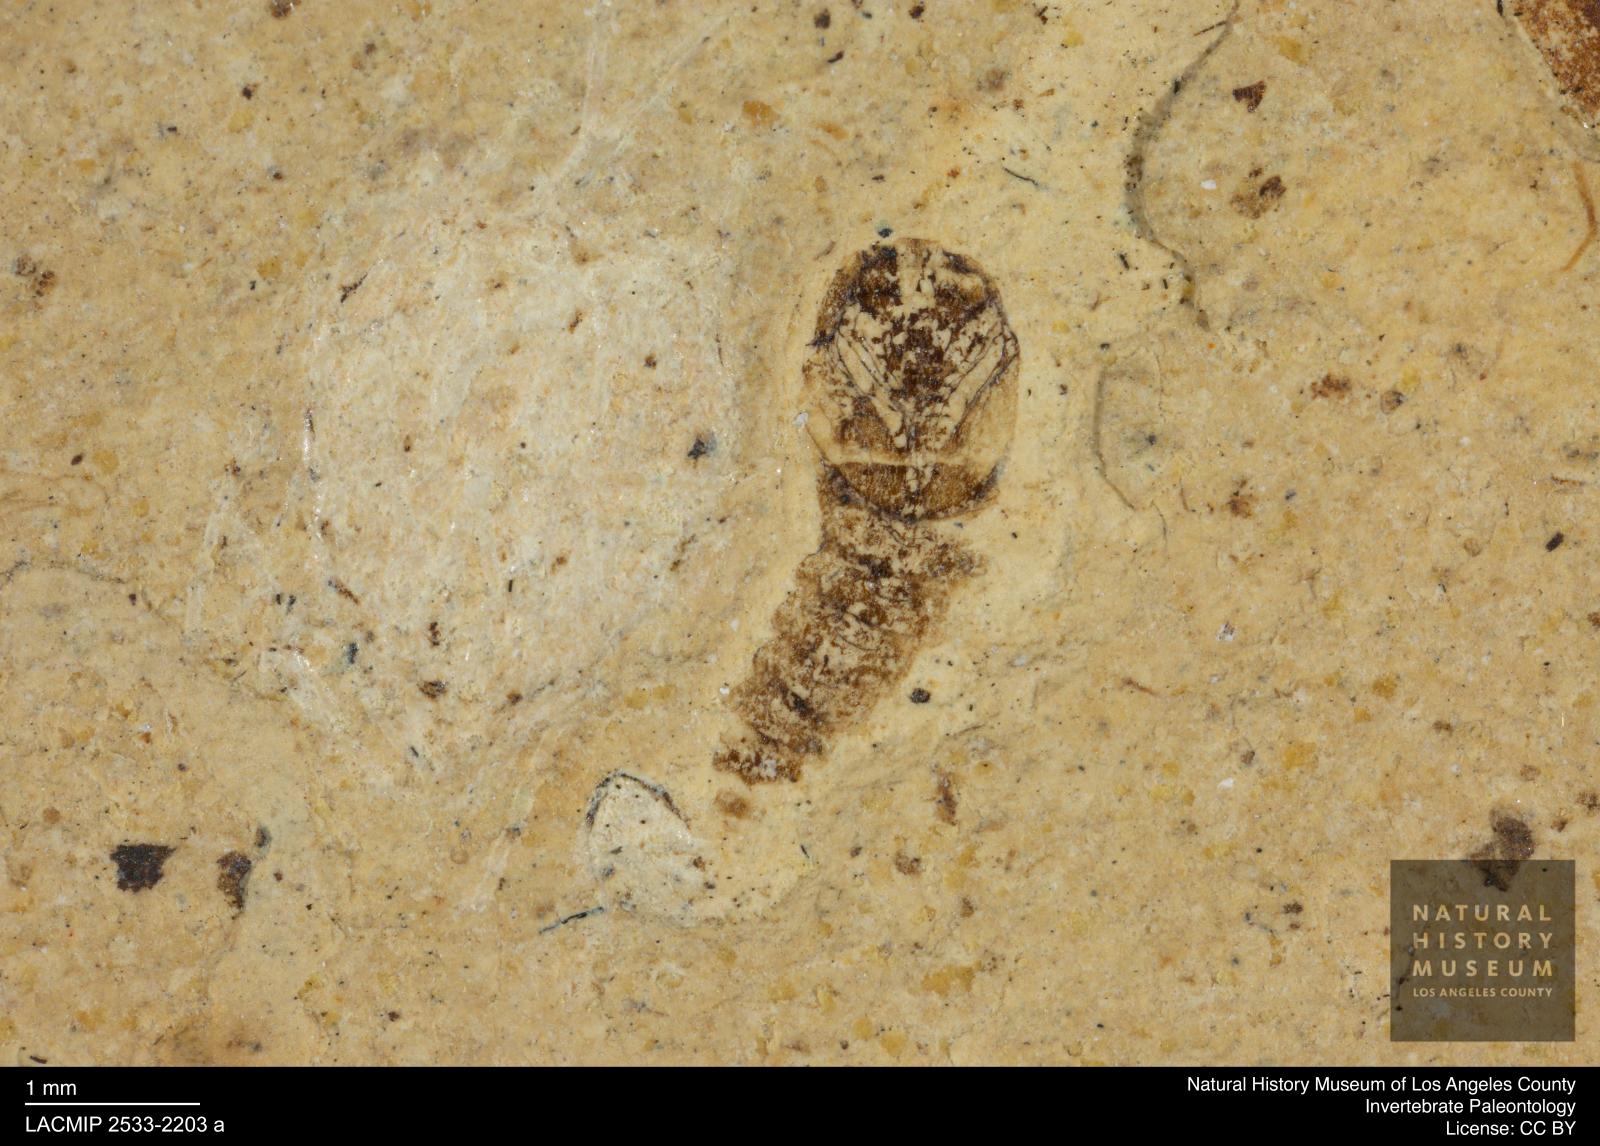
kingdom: Animalia
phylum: Arthropoda
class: Insecta
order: Diptera
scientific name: Diptera
